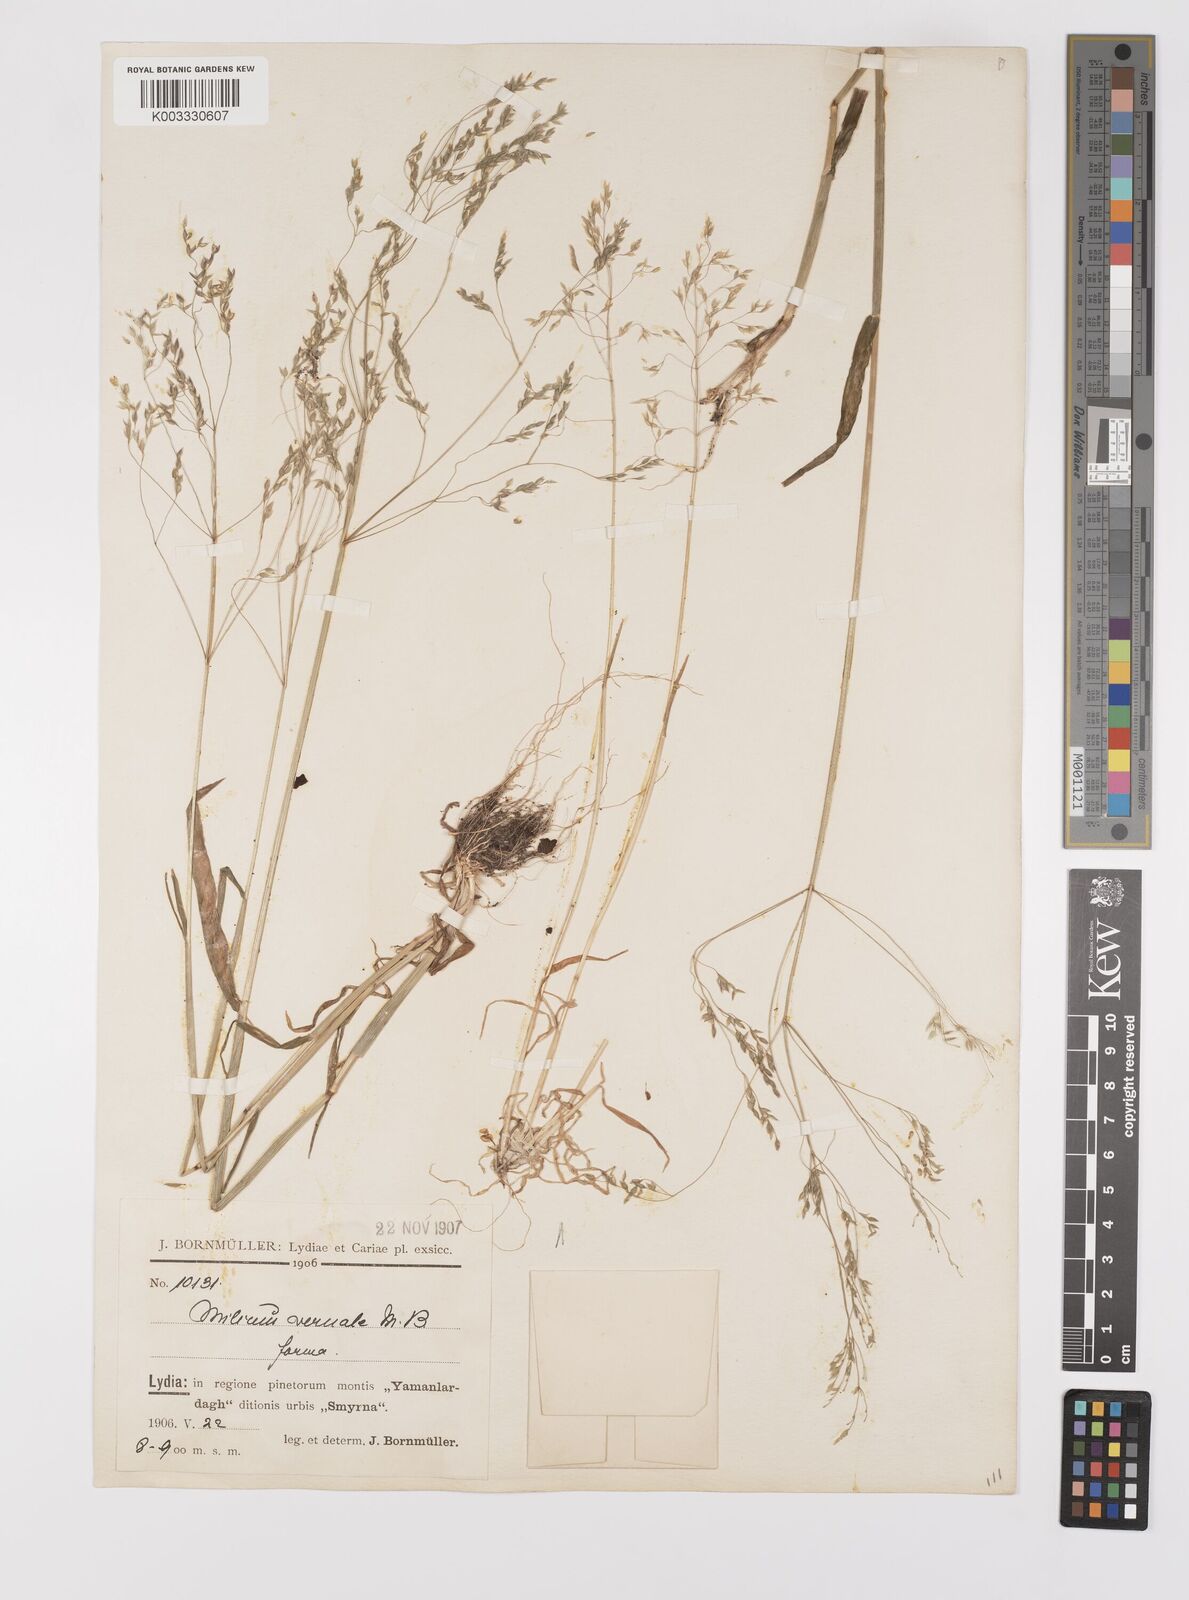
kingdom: Plantae
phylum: Tracheophyta
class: Liliopsida
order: Poales
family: Poaceae
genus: Milium
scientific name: Milium vernale
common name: Early millet
